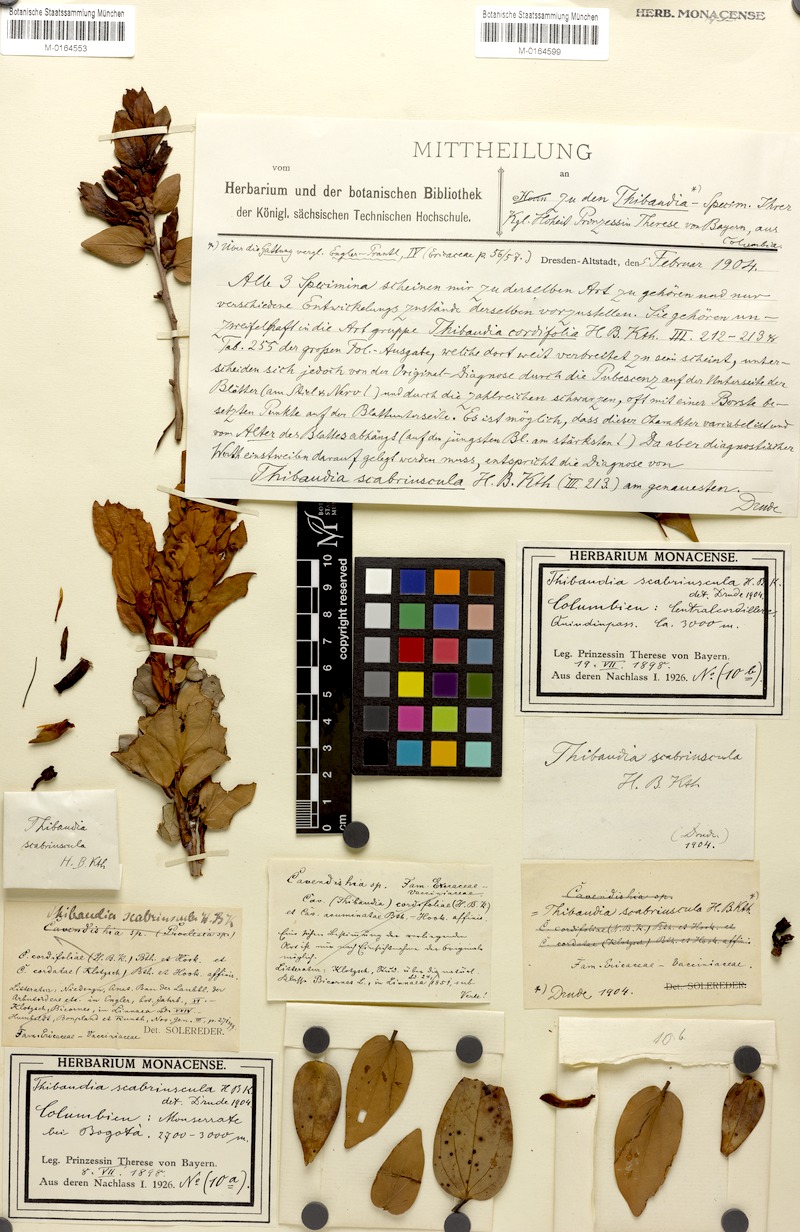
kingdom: Plantae
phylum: Tracheophyta
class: Magnoliopsida
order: Ericales
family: Ericaceae
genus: Cavendishia
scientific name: Cavendishia bracteata
